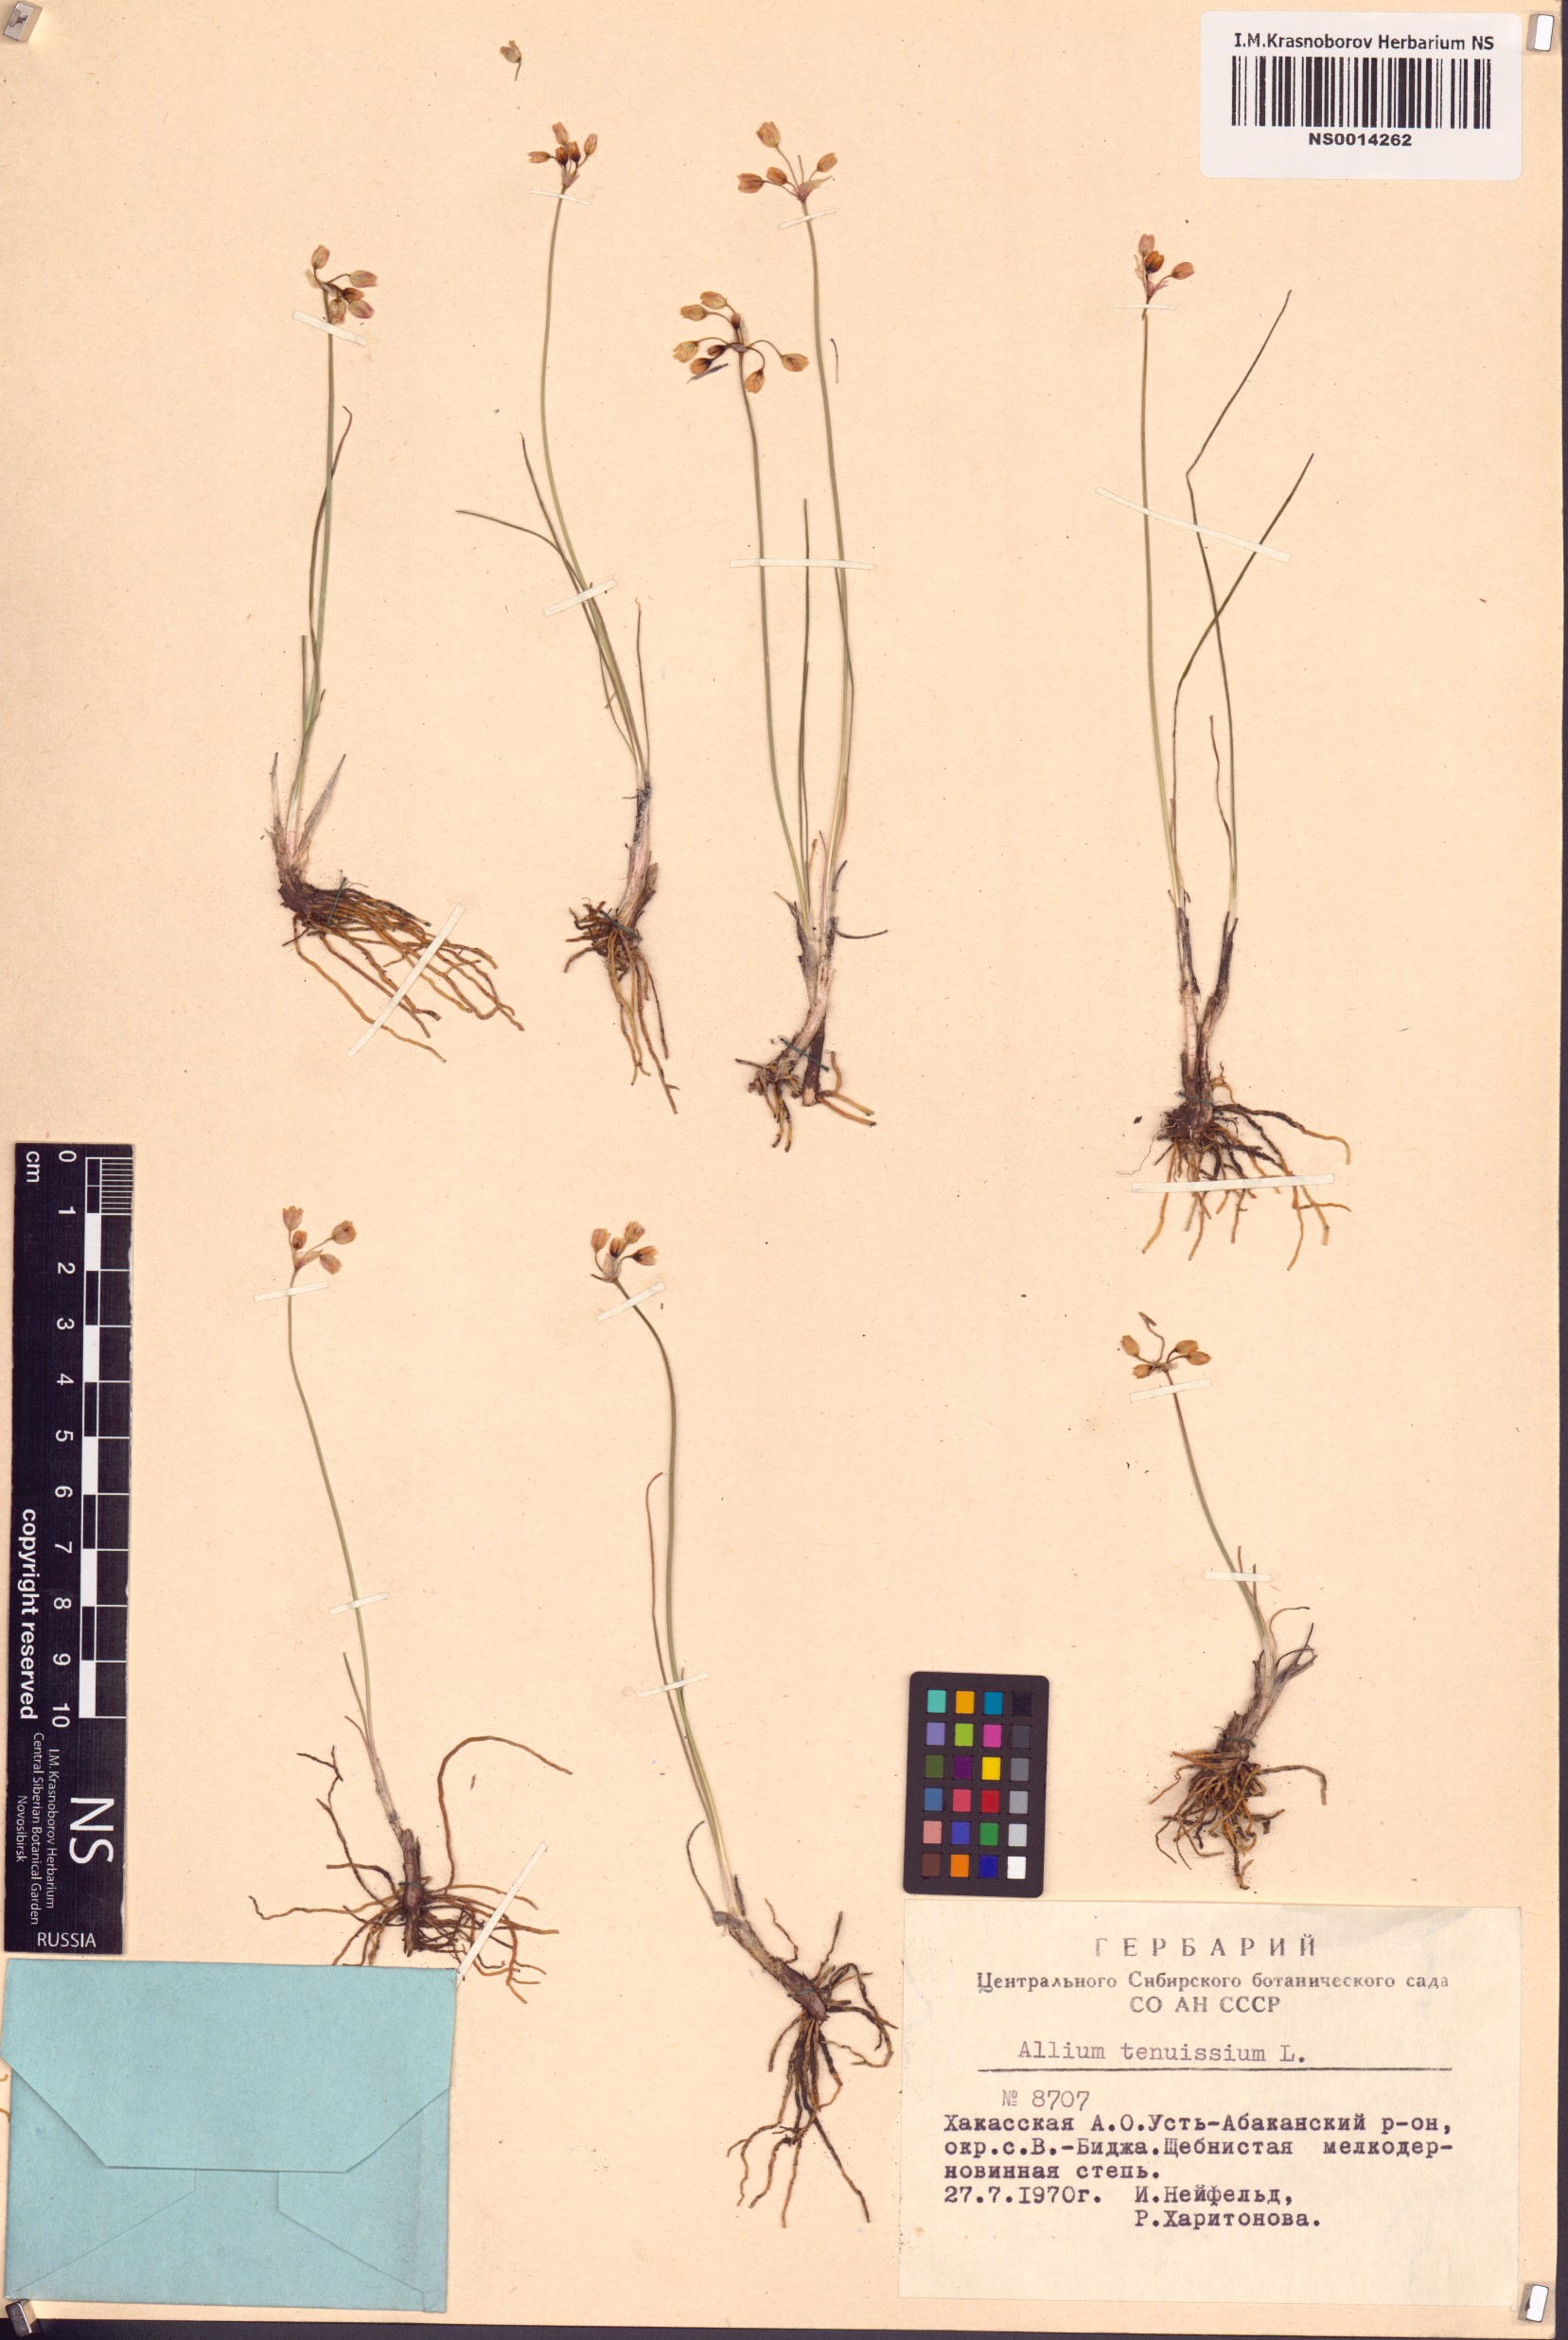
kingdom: Plantae
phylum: Tracheophyta
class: Liliopsida
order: Asparagales
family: Amaryllidaceae
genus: Allium
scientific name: Allium tenuissimum
